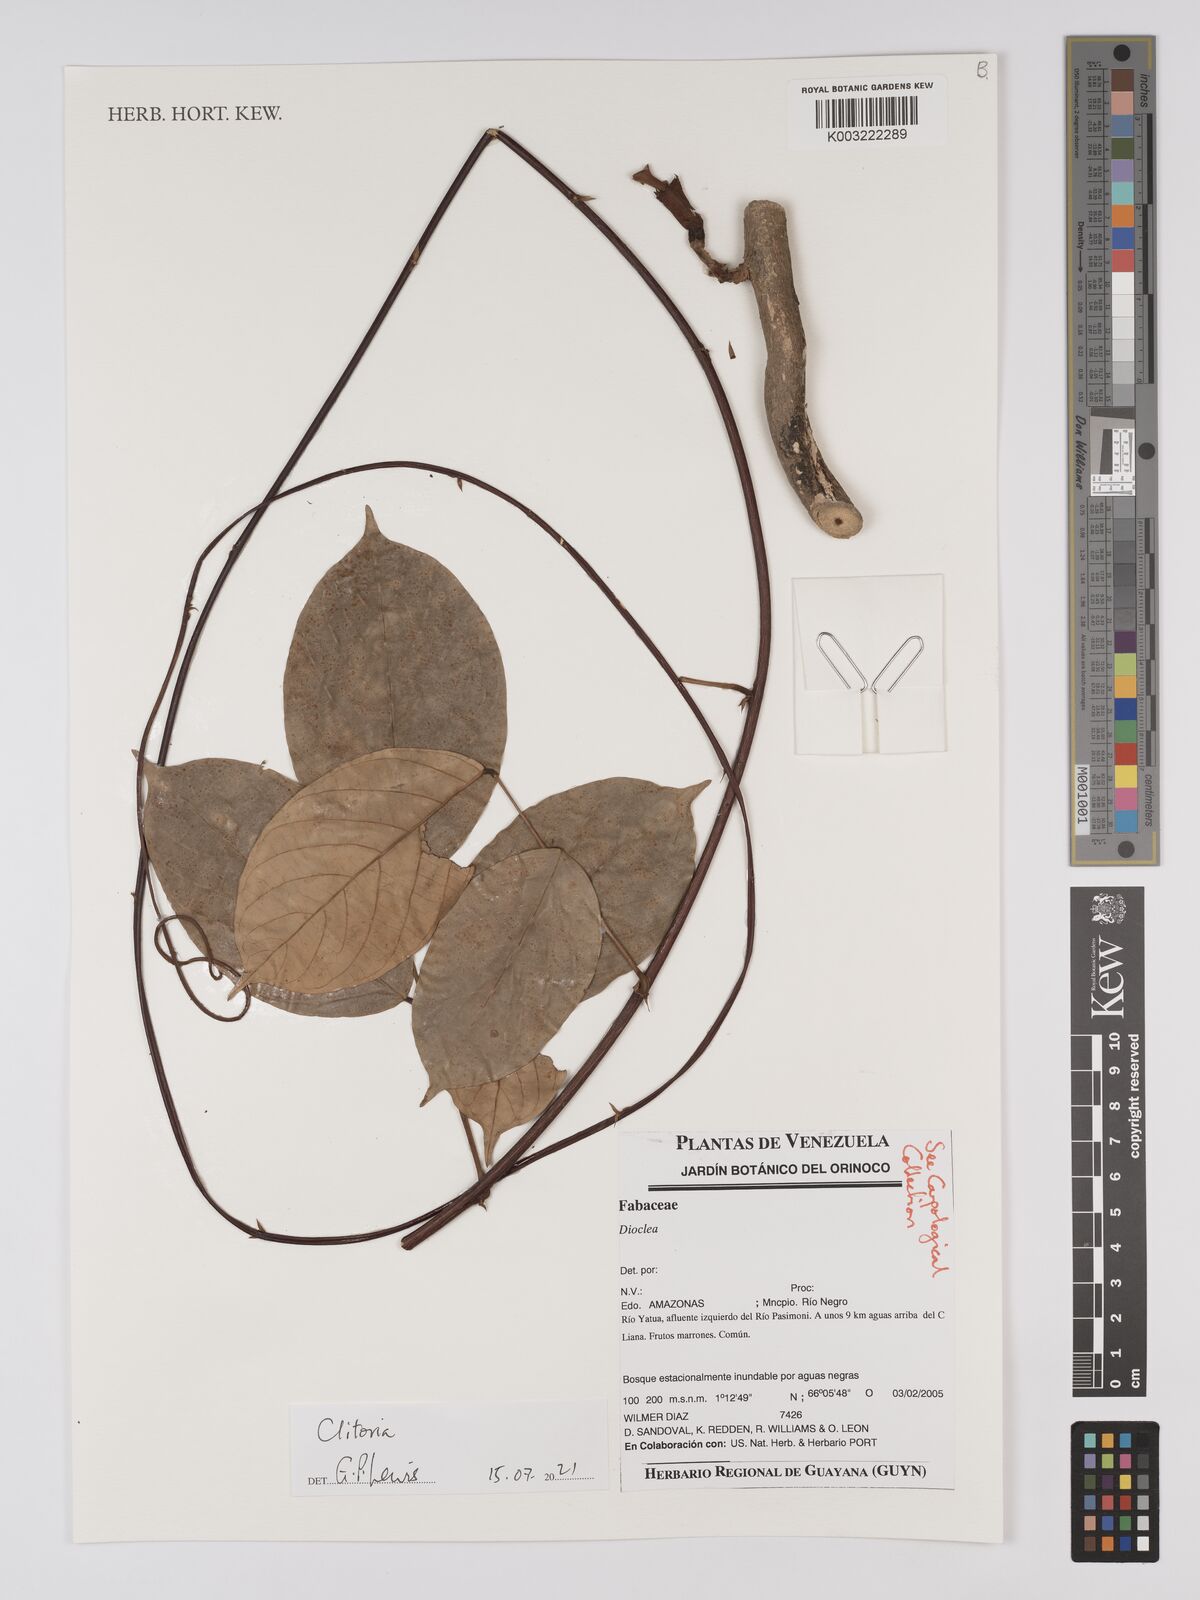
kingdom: Plantae
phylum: Tracheophyta
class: Magnoliopsida
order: Fabales
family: Fabaceae
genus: Clitoria
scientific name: Clitoria
